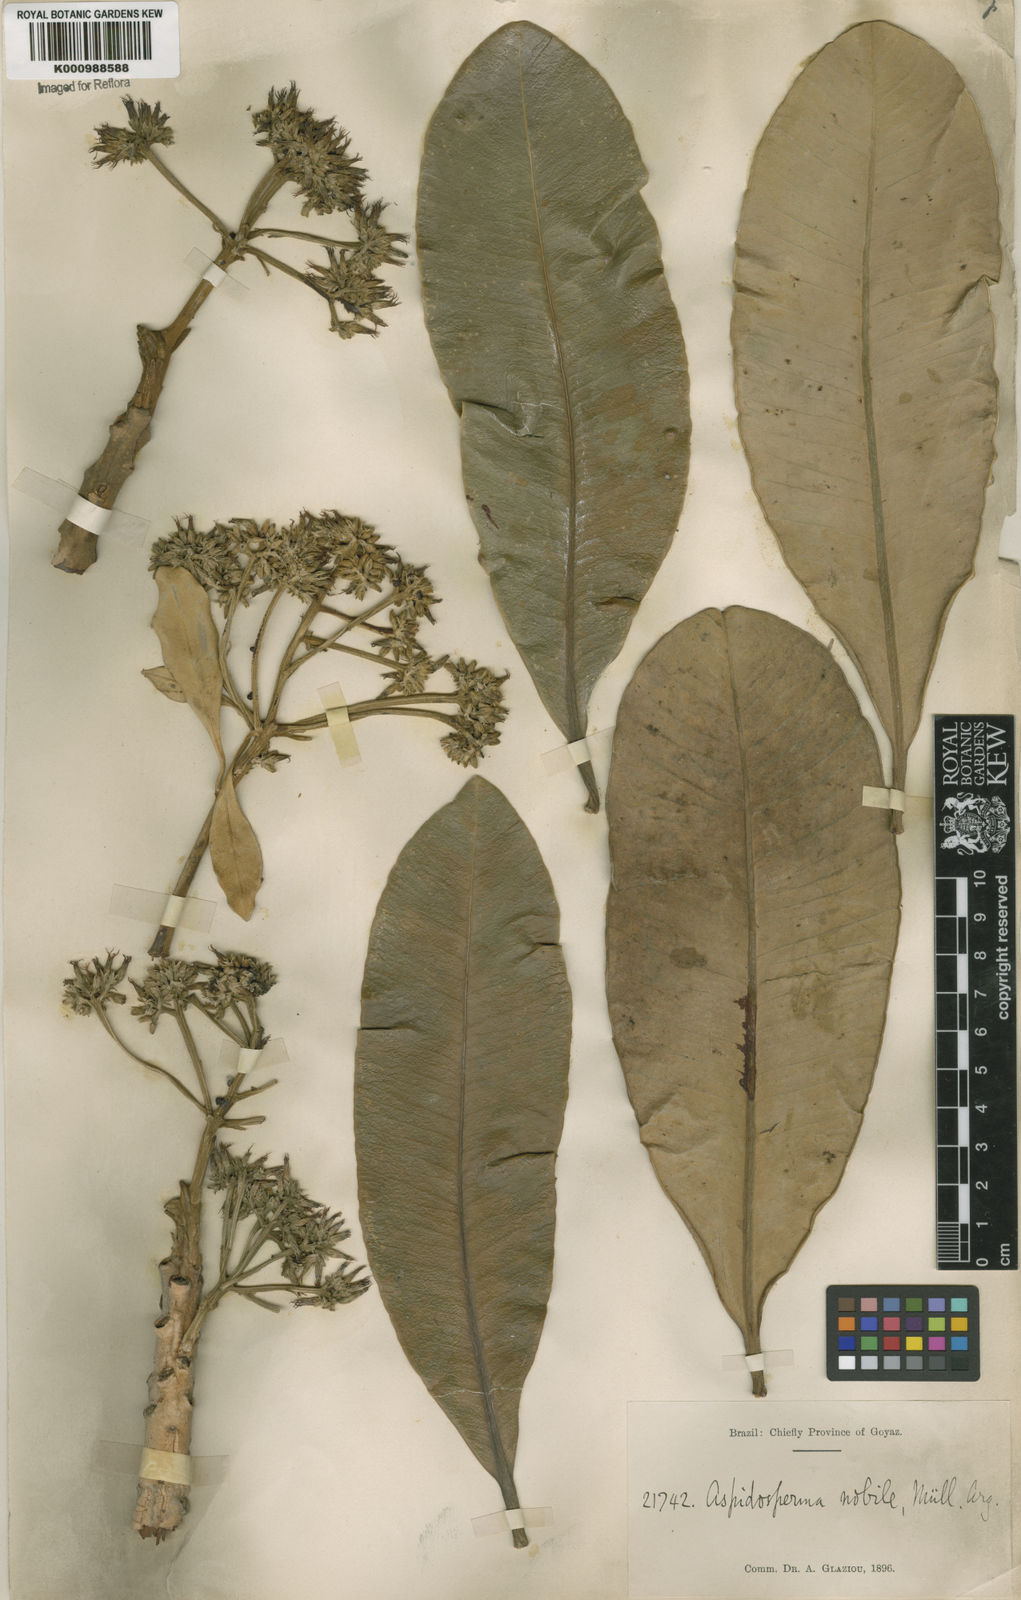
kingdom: Plantae
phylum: Tracheophyta
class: Magnoliopsida
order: Gentianales
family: Apocynaceae
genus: Aspidosperma
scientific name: Aspidosperma
